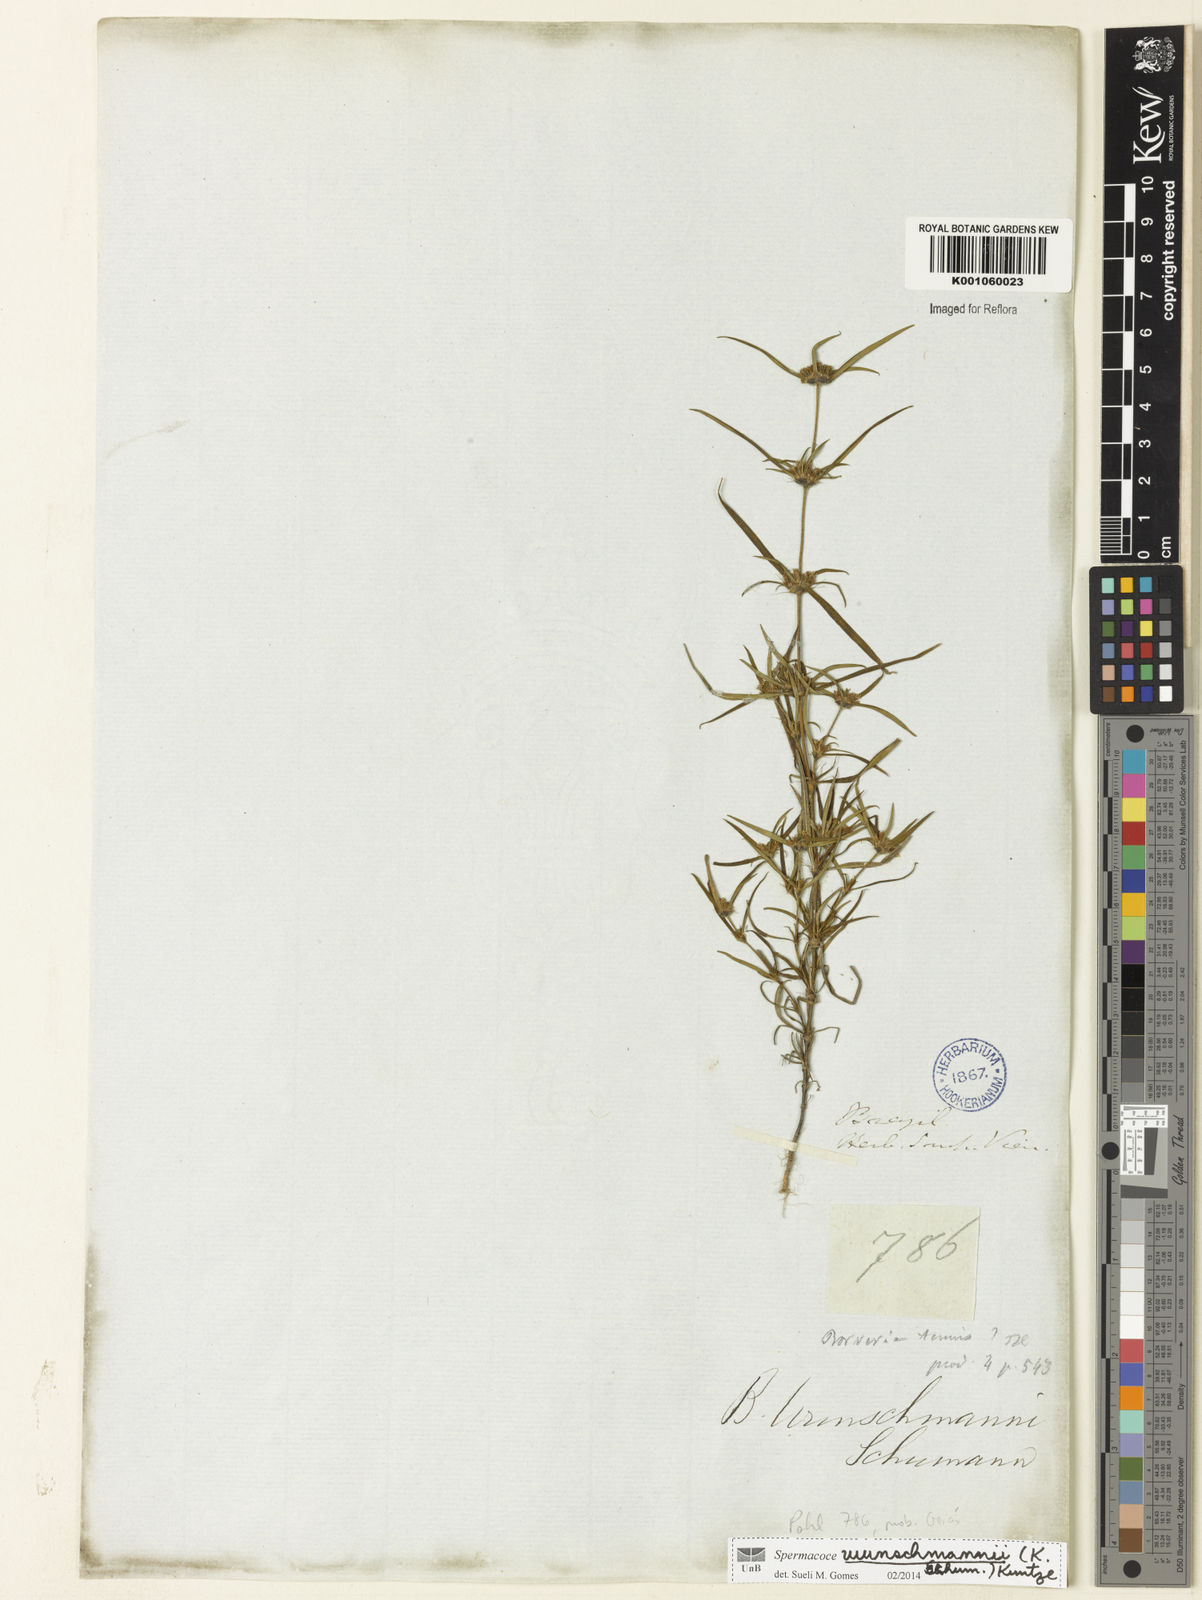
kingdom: Plantae
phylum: Tracheophyta
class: Magnoliopsida
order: Gentianales
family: Rubiaceae
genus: Spermacoce
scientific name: Spermacoce wunschmannii
